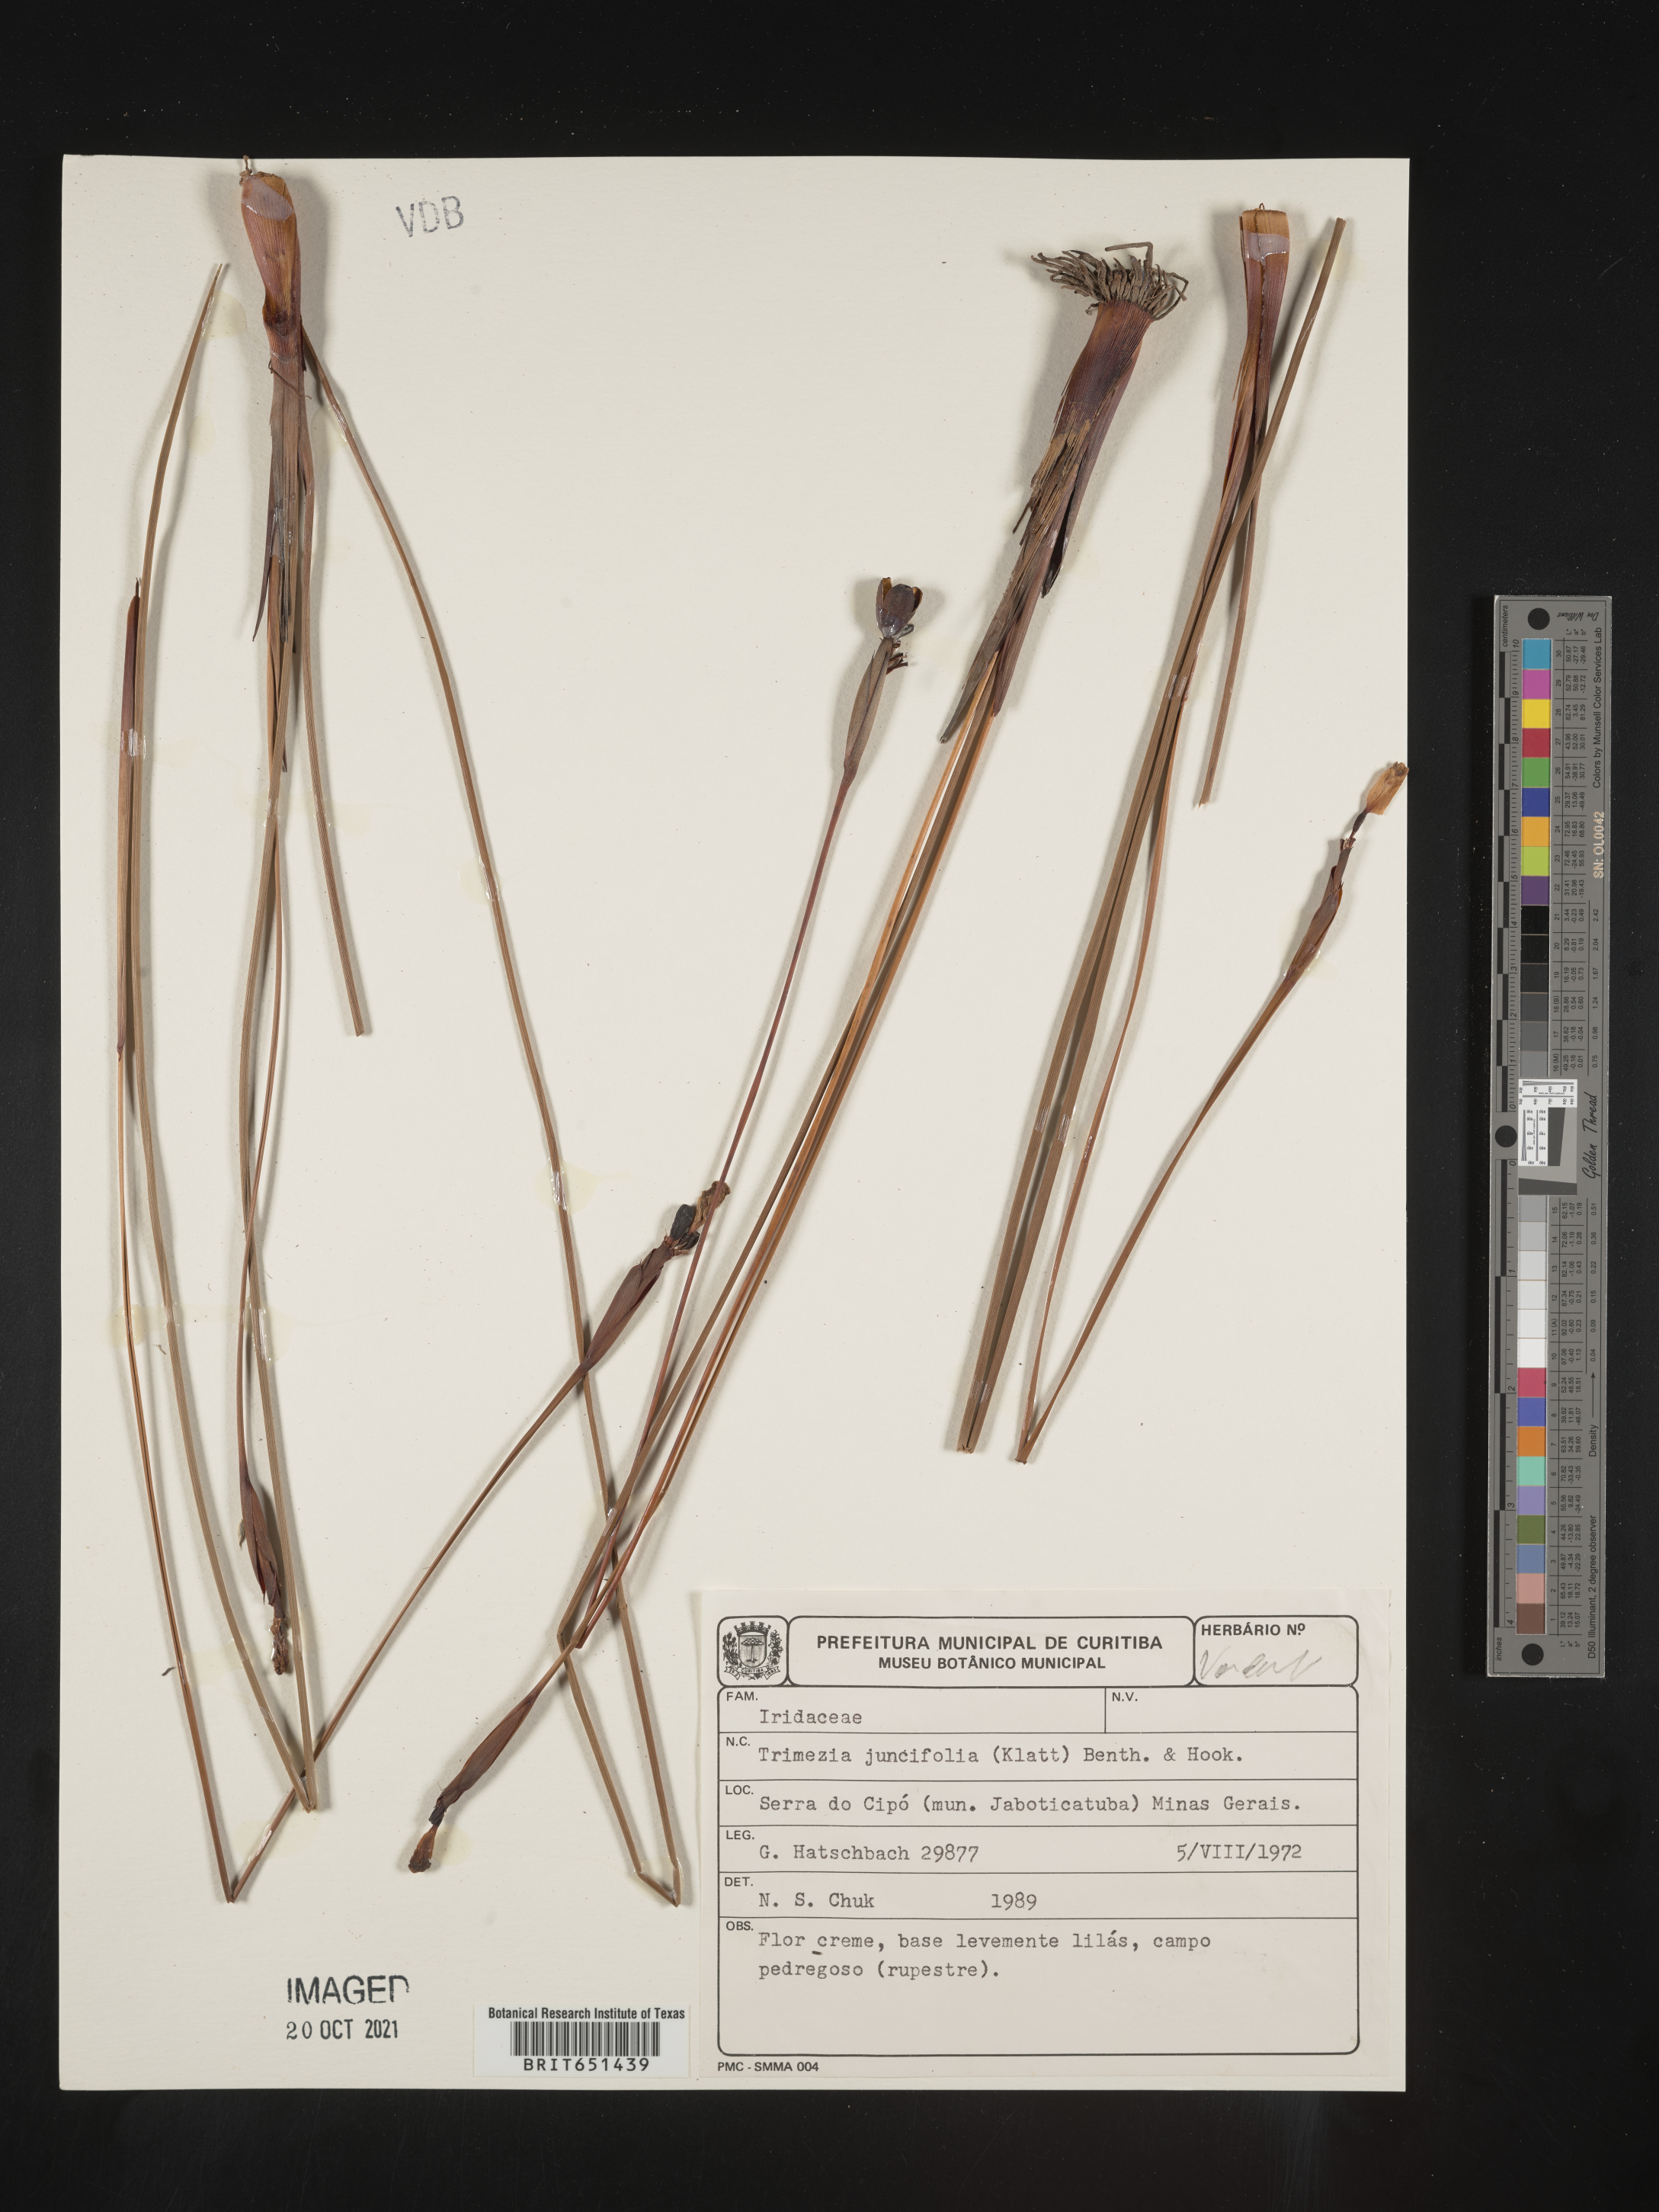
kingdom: Plantae
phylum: Tracheophyta
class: Liliopsida
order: Asparagales
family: Iridaceae
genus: Trimezia
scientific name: Trimezia
